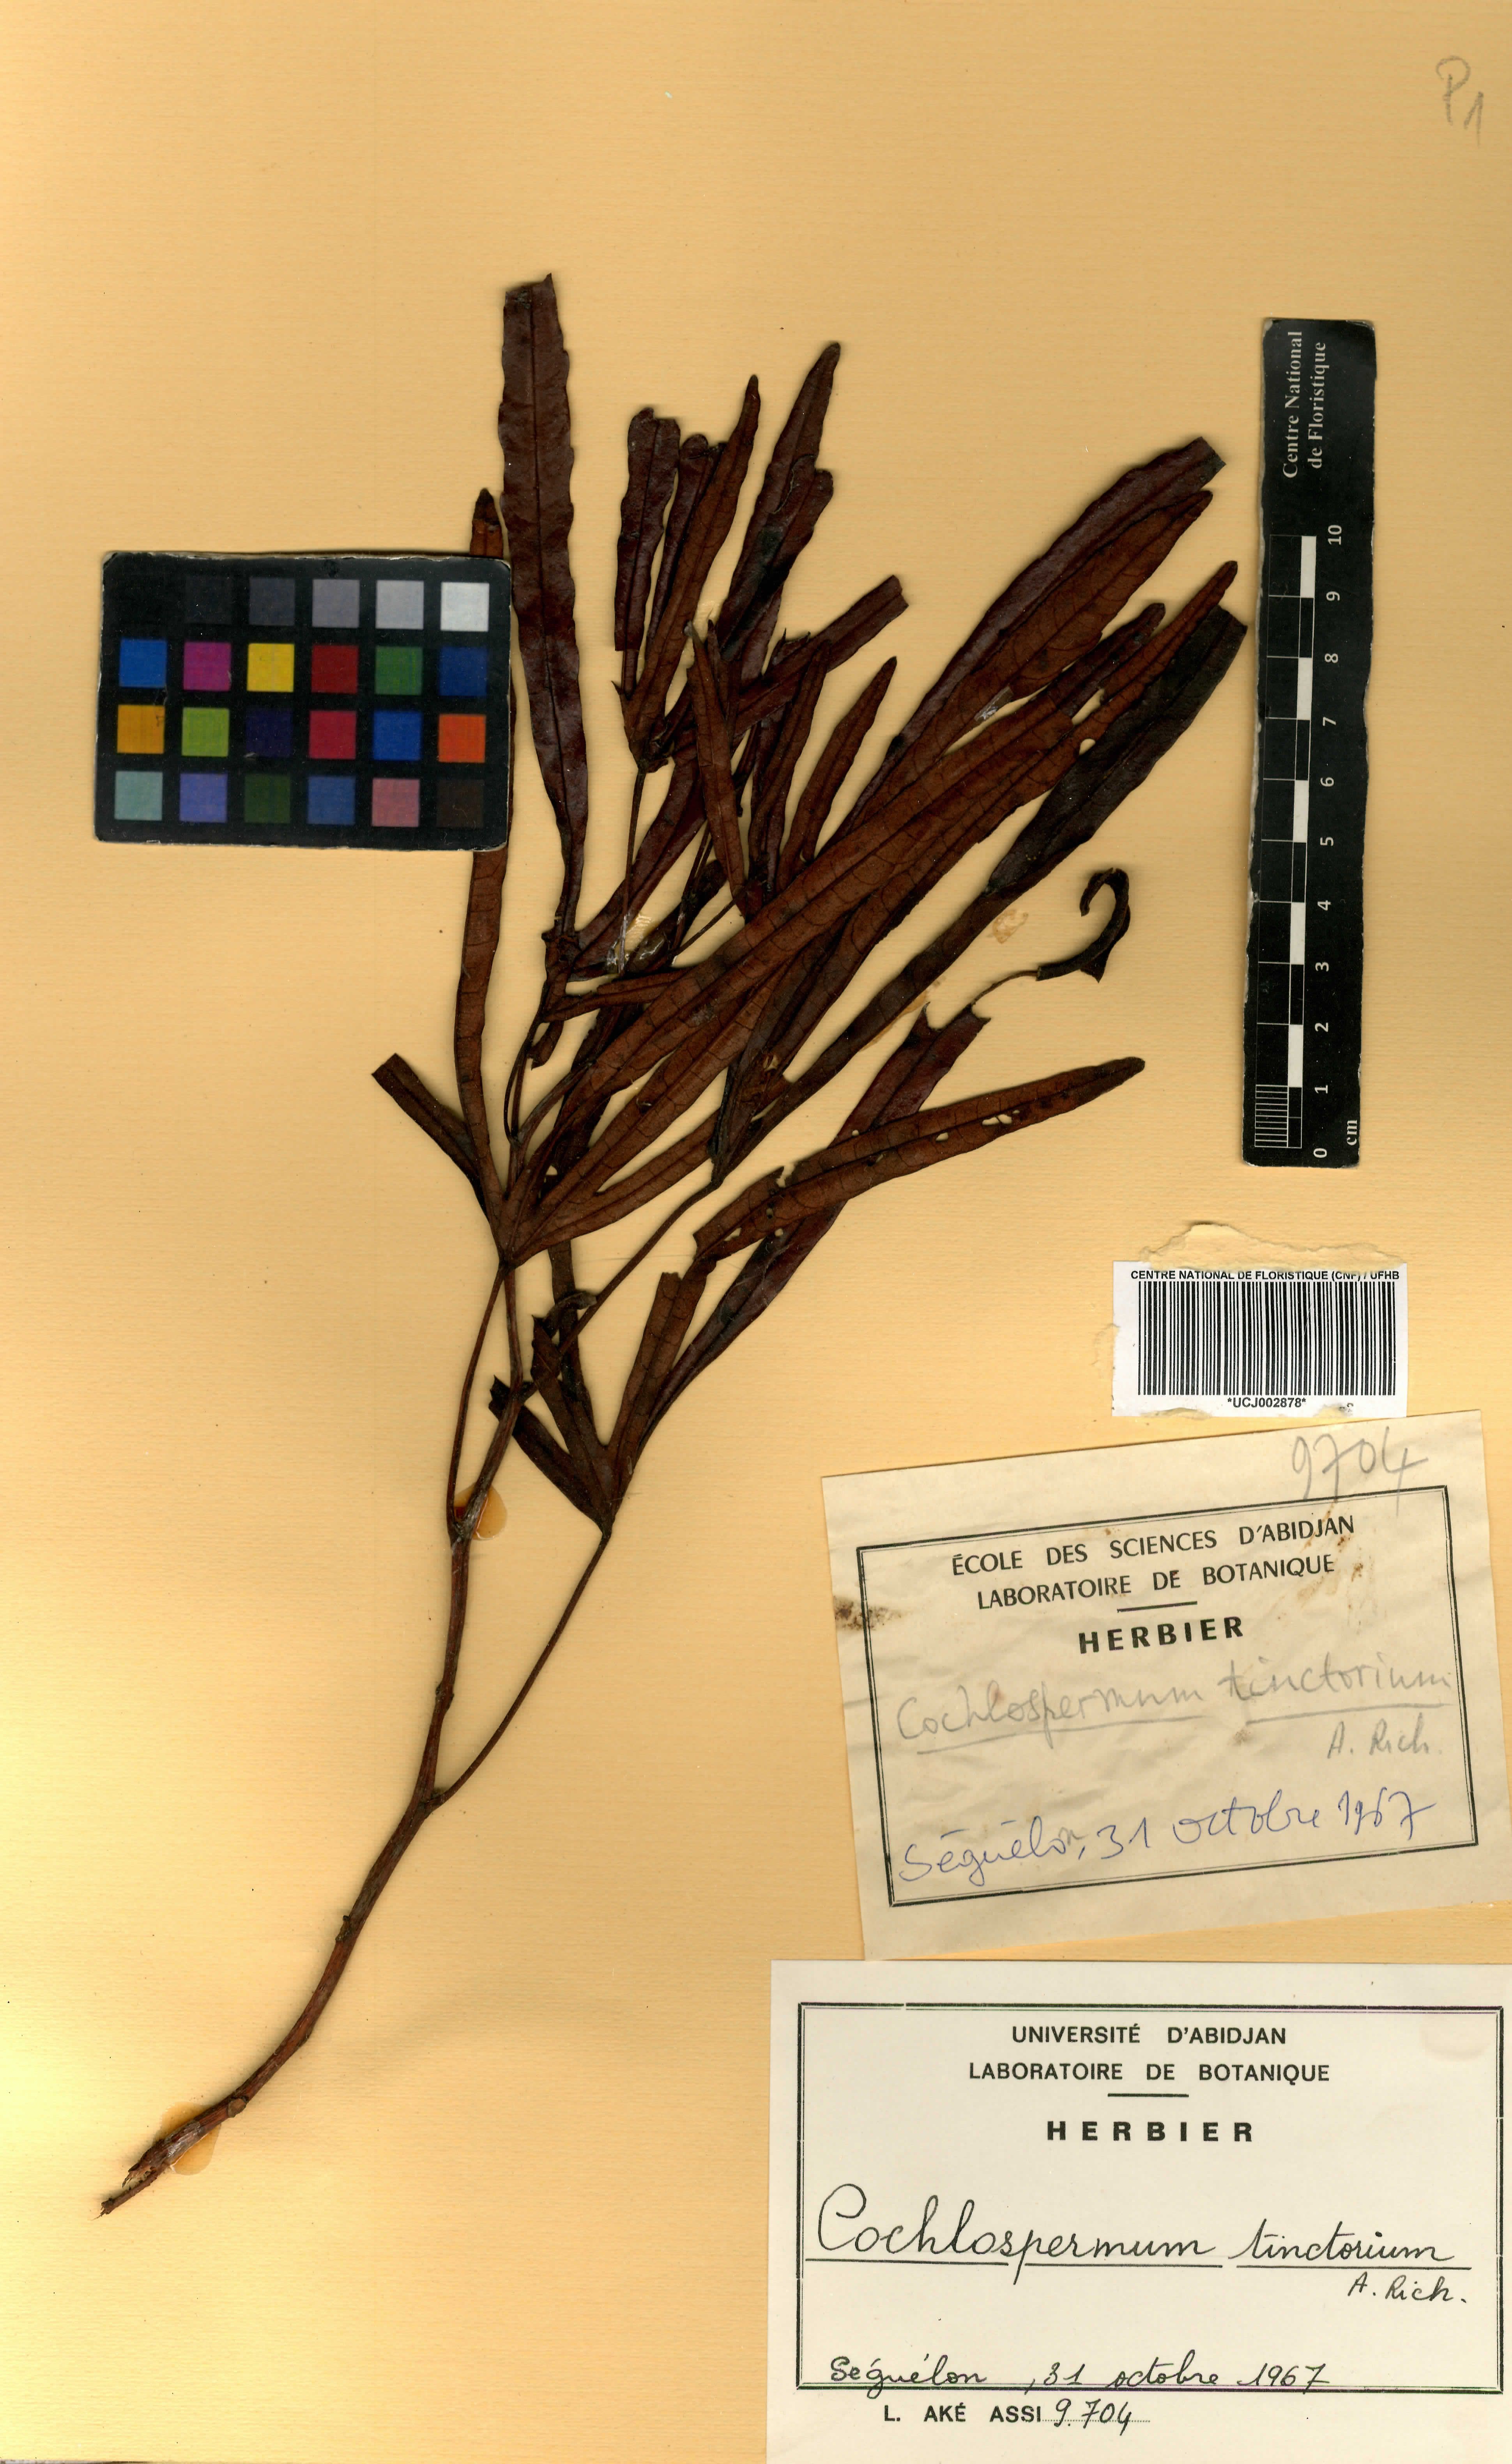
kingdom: Plantae
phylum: Tracheophyta
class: Magnoliopsida
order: Malvales
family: Cochlospermaceae
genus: Cochlospermum
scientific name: Cochlospermum tinctorium
